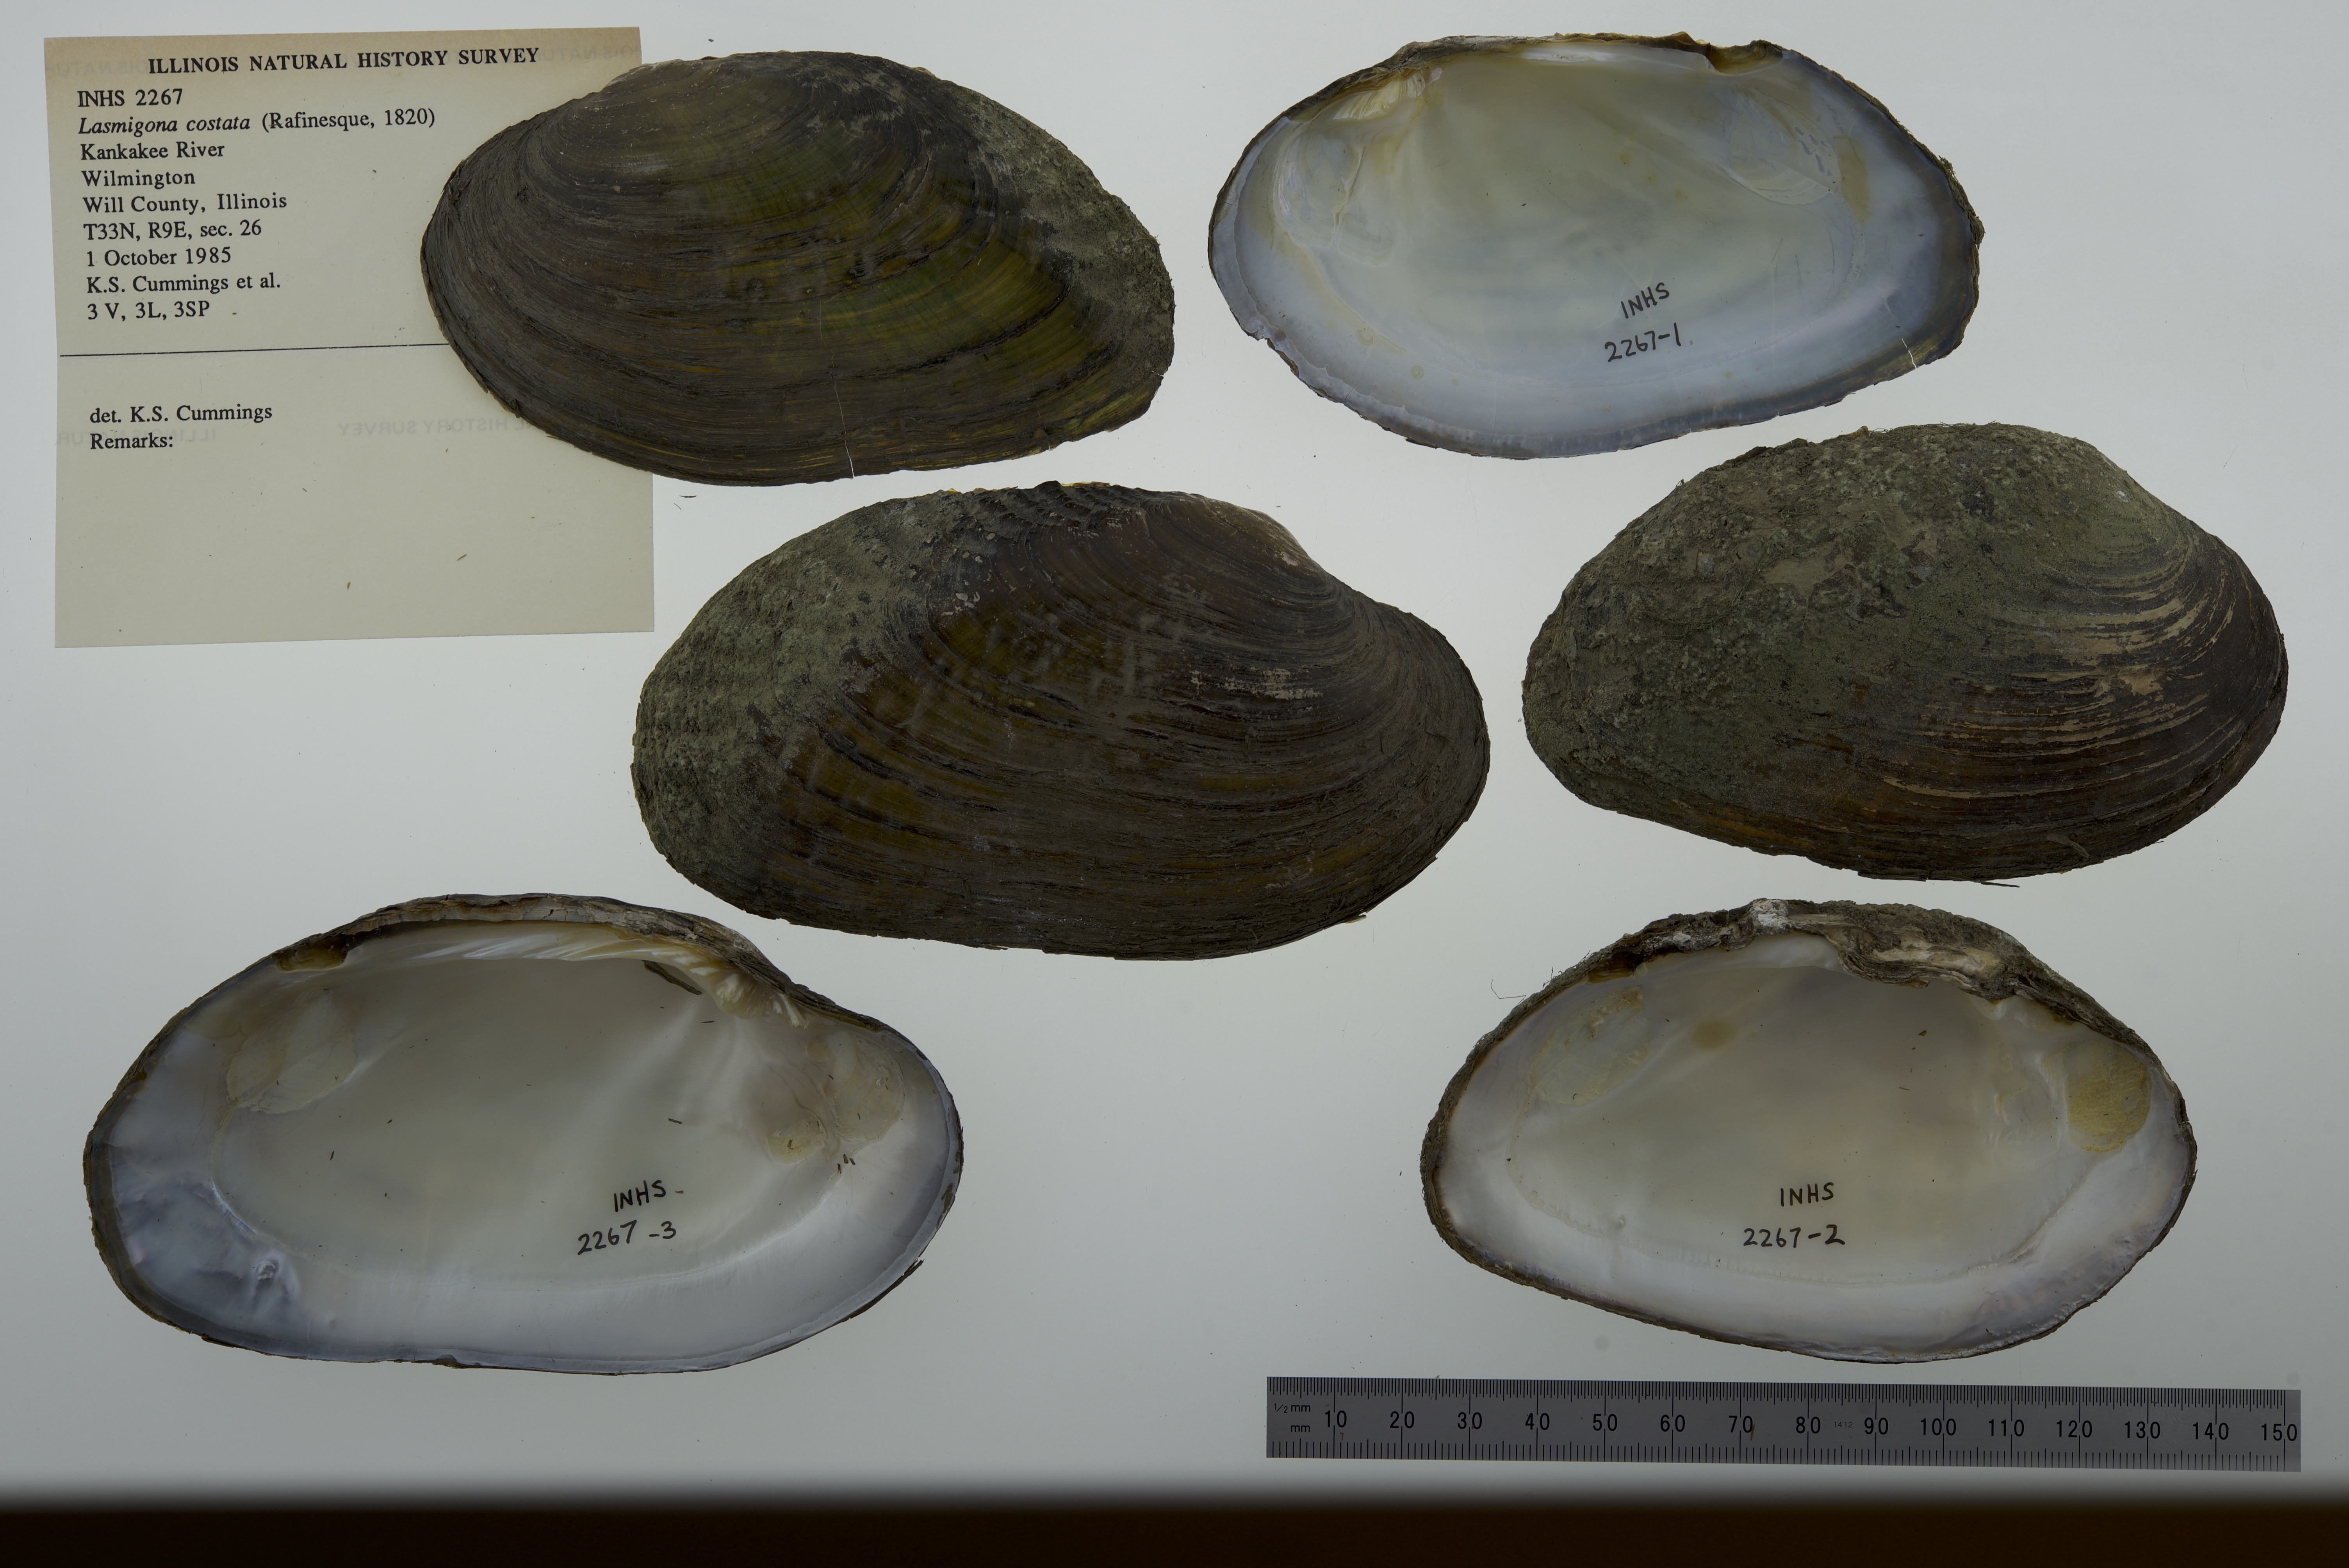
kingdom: Animalia
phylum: Mollusca
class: Bivalvia
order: Unionida
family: Unionidae
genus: Lasmigona
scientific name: Lasmigona costata
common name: Flutedshell
